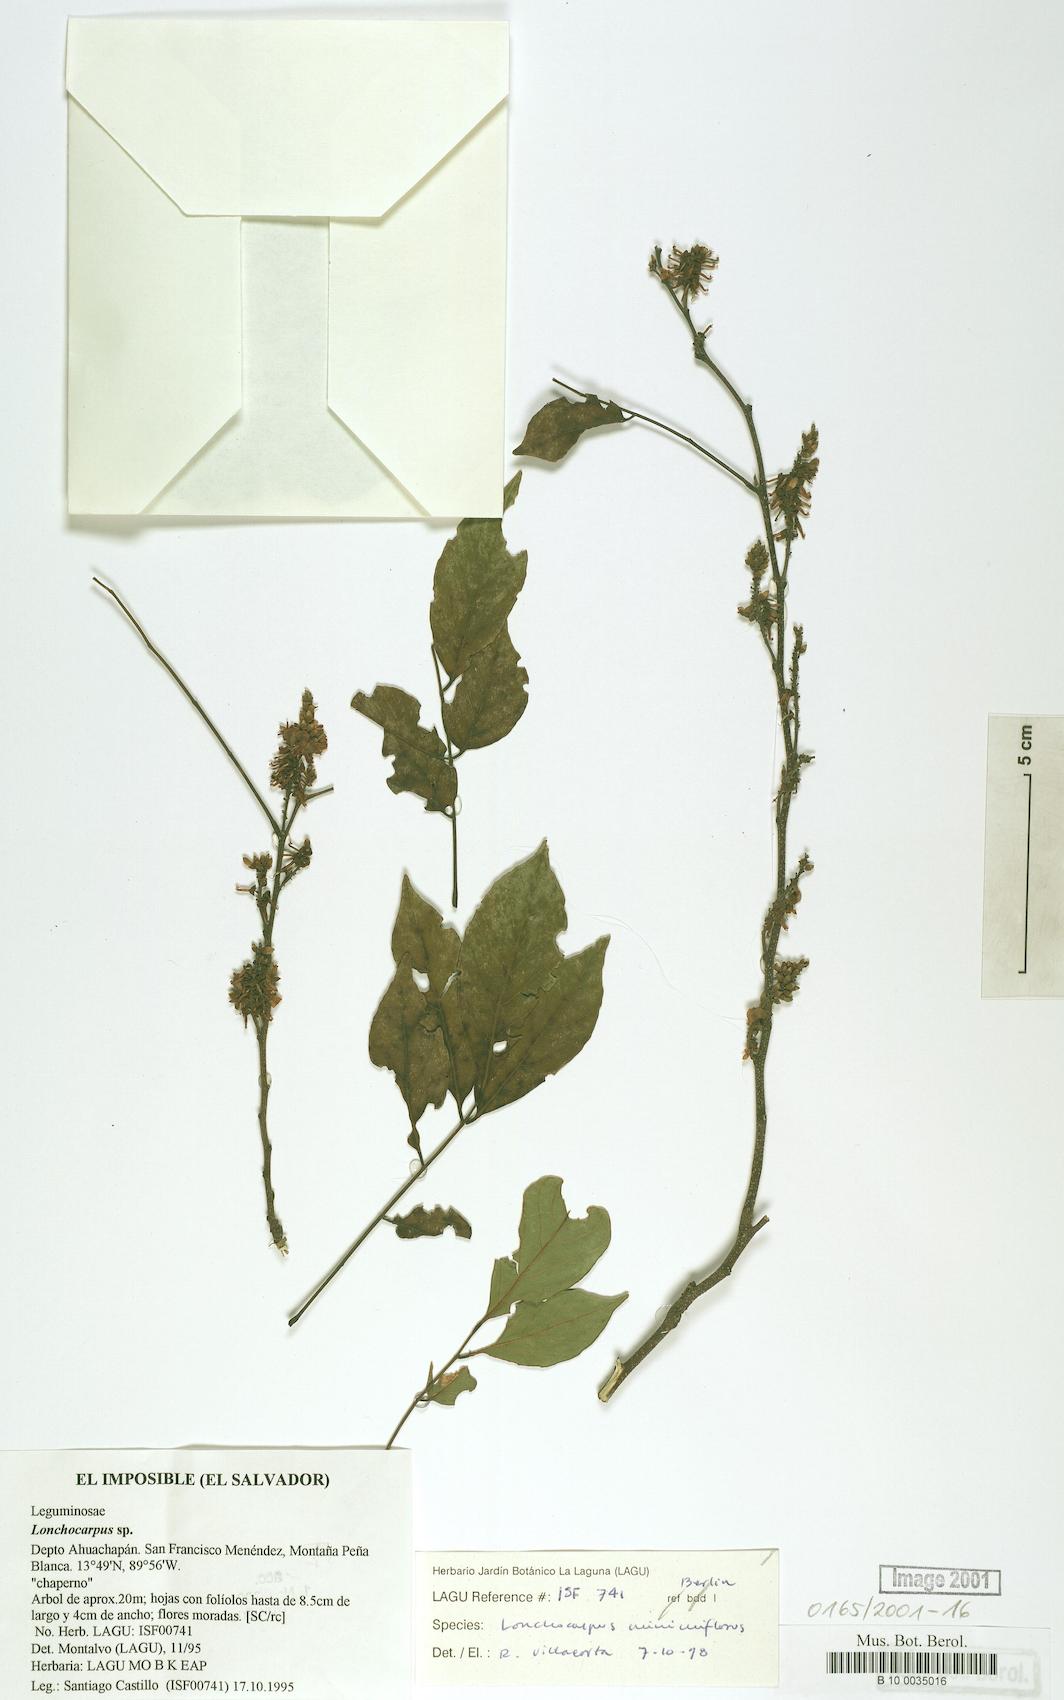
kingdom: Plantae
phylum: Tracheophyta
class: Magnoliopsida
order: Fabales
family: Fabaceae
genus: Lonchocarpus
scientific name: Lonchocarpus minimiflorus
